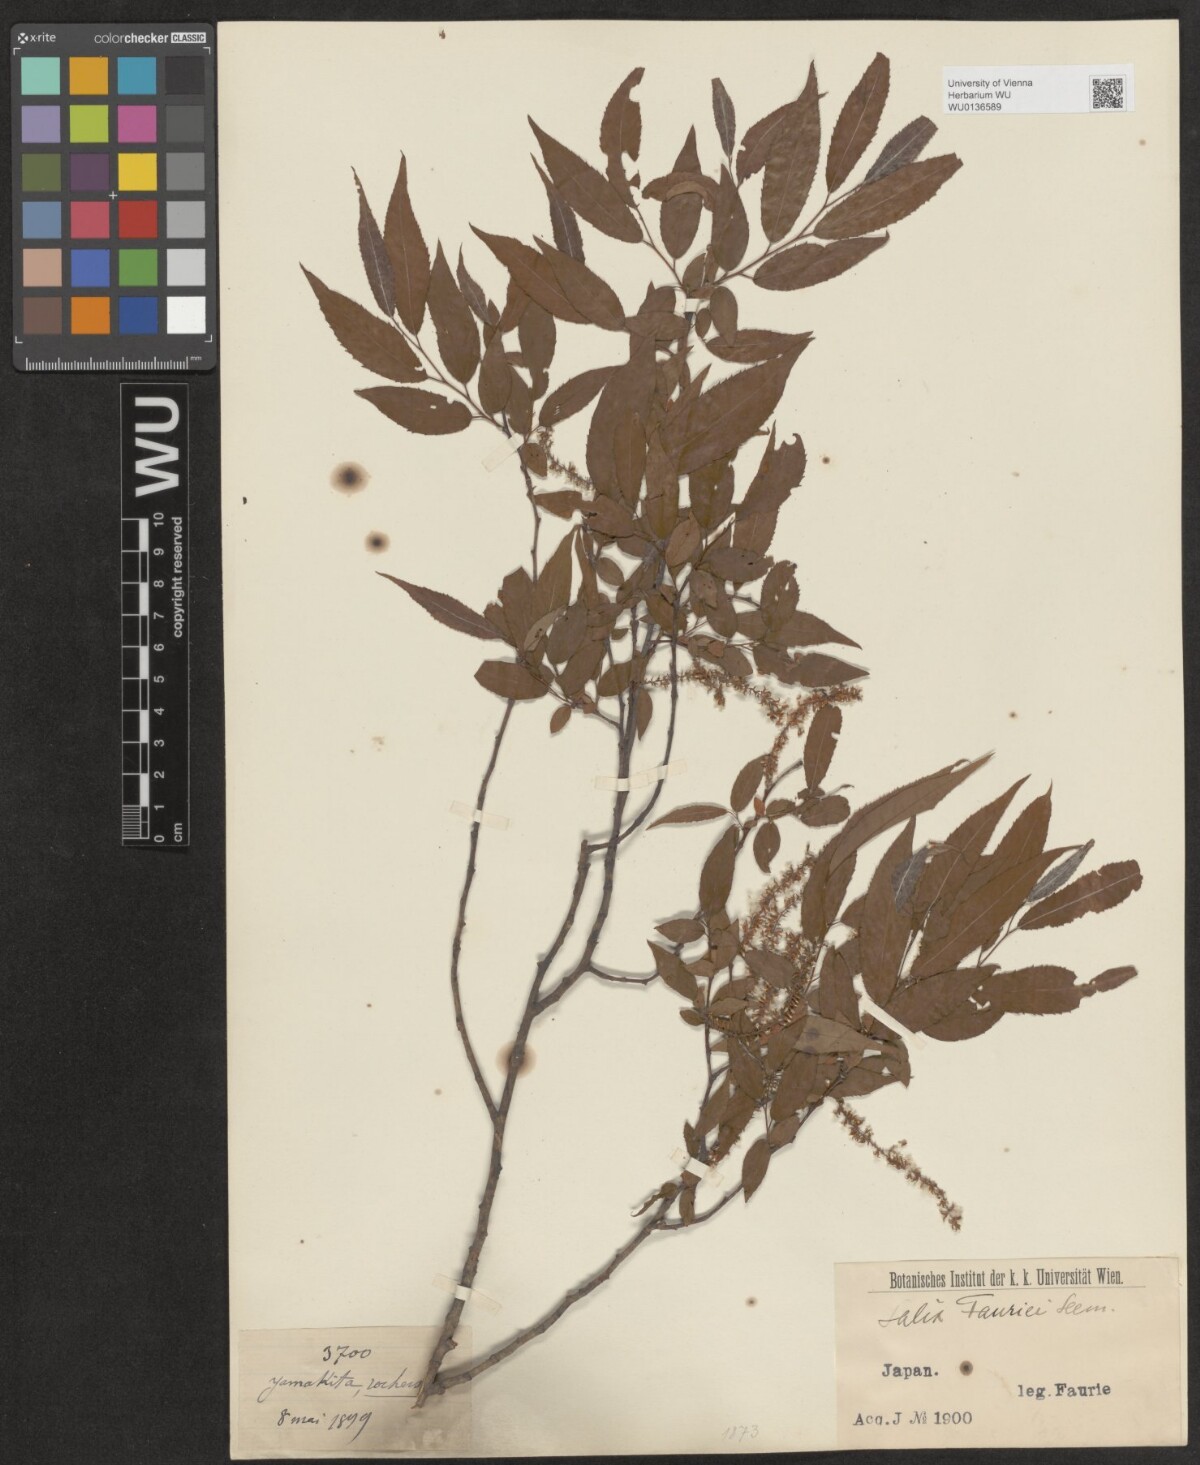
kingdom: Plantae
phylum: Tracheophyta
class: Magnoliopsida
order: Malpighiales
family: Salicaceae
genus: Salix
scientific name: Salix japonica
